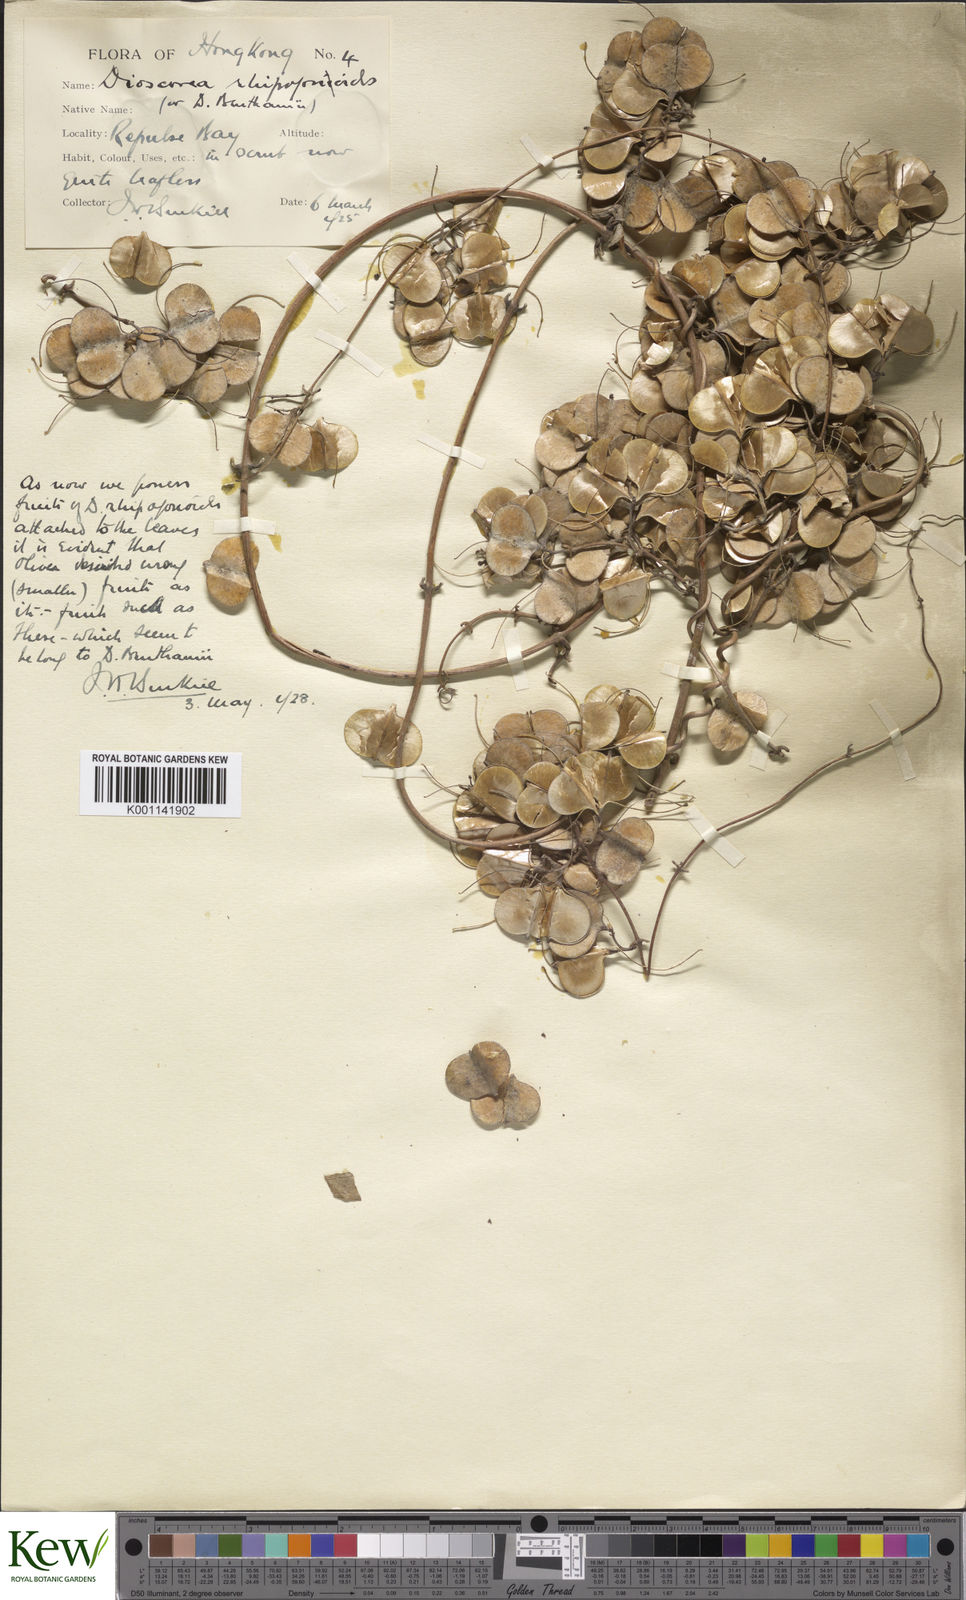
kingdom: Plantae
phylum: Tracheophyta
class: Liliopsida
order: Dioscoreales
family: Dioscoreaceae
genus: Dioscorea
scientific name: Dioscorea benthamii
